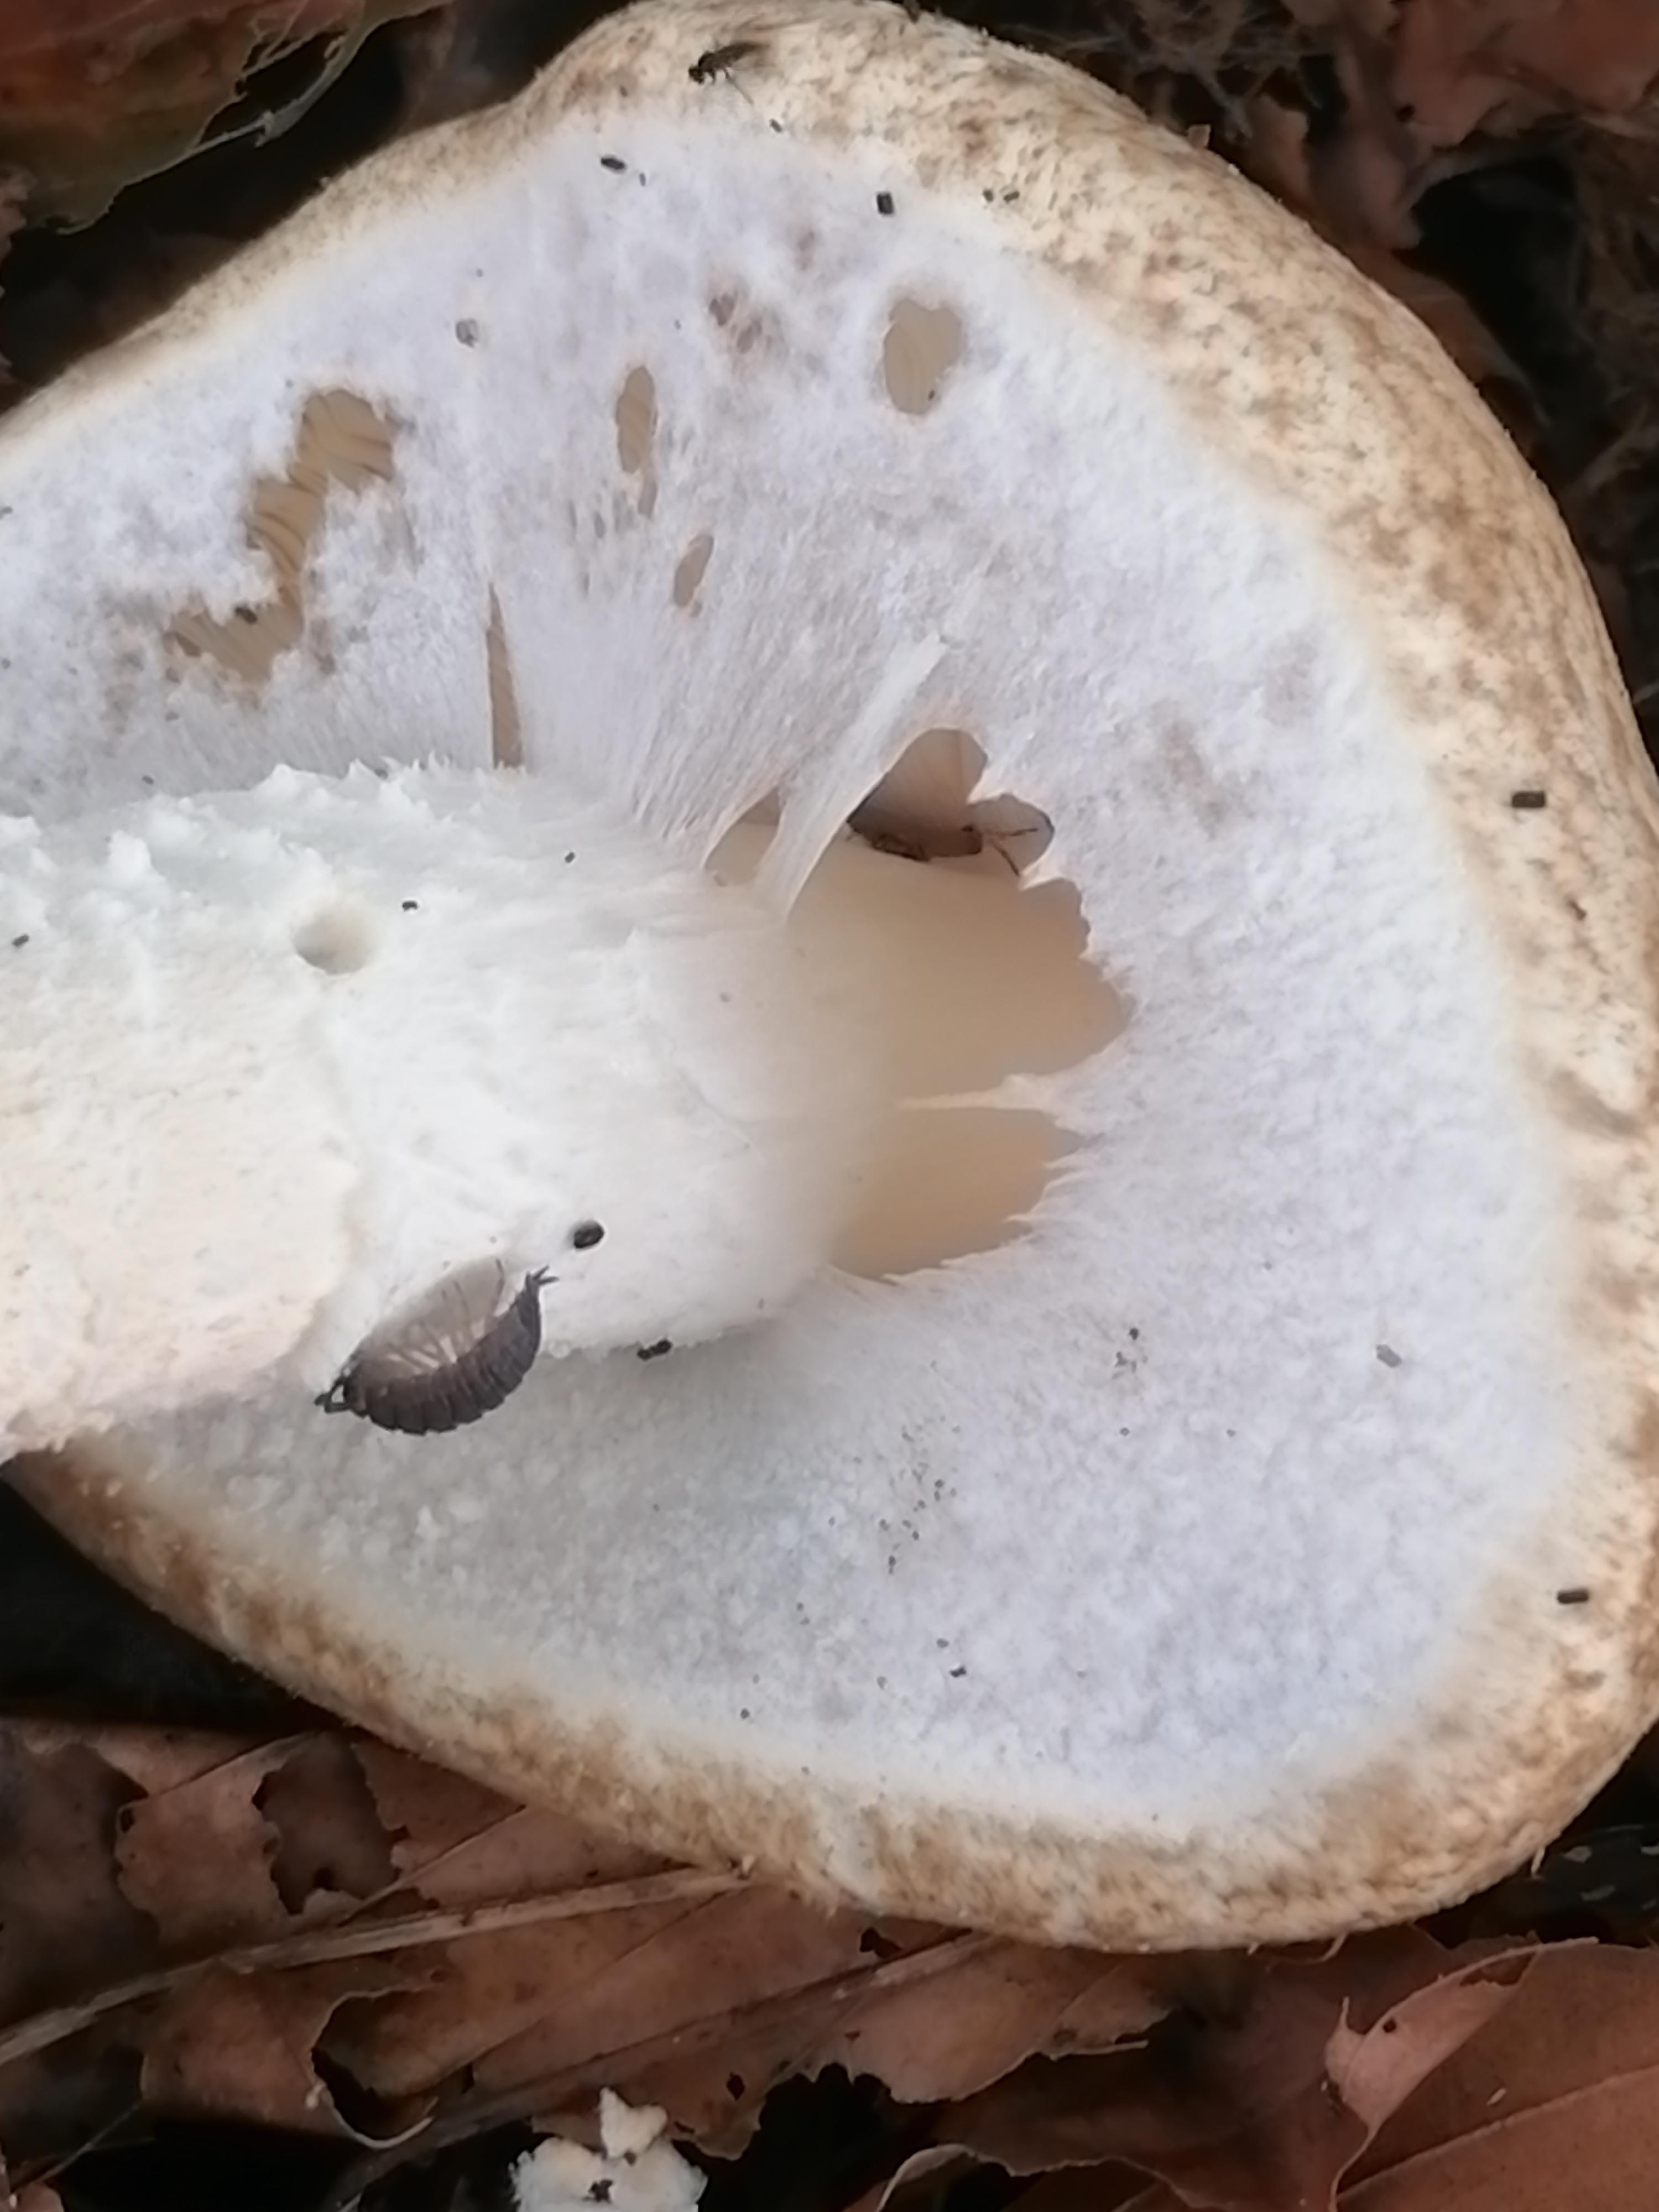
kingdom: Fungi
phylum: Basidiomycota
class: Agaricomycetes
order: Agaricales
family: Agaricaceae
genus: Agaricus
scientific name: Agaricus augustus
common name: prægtig champignon
